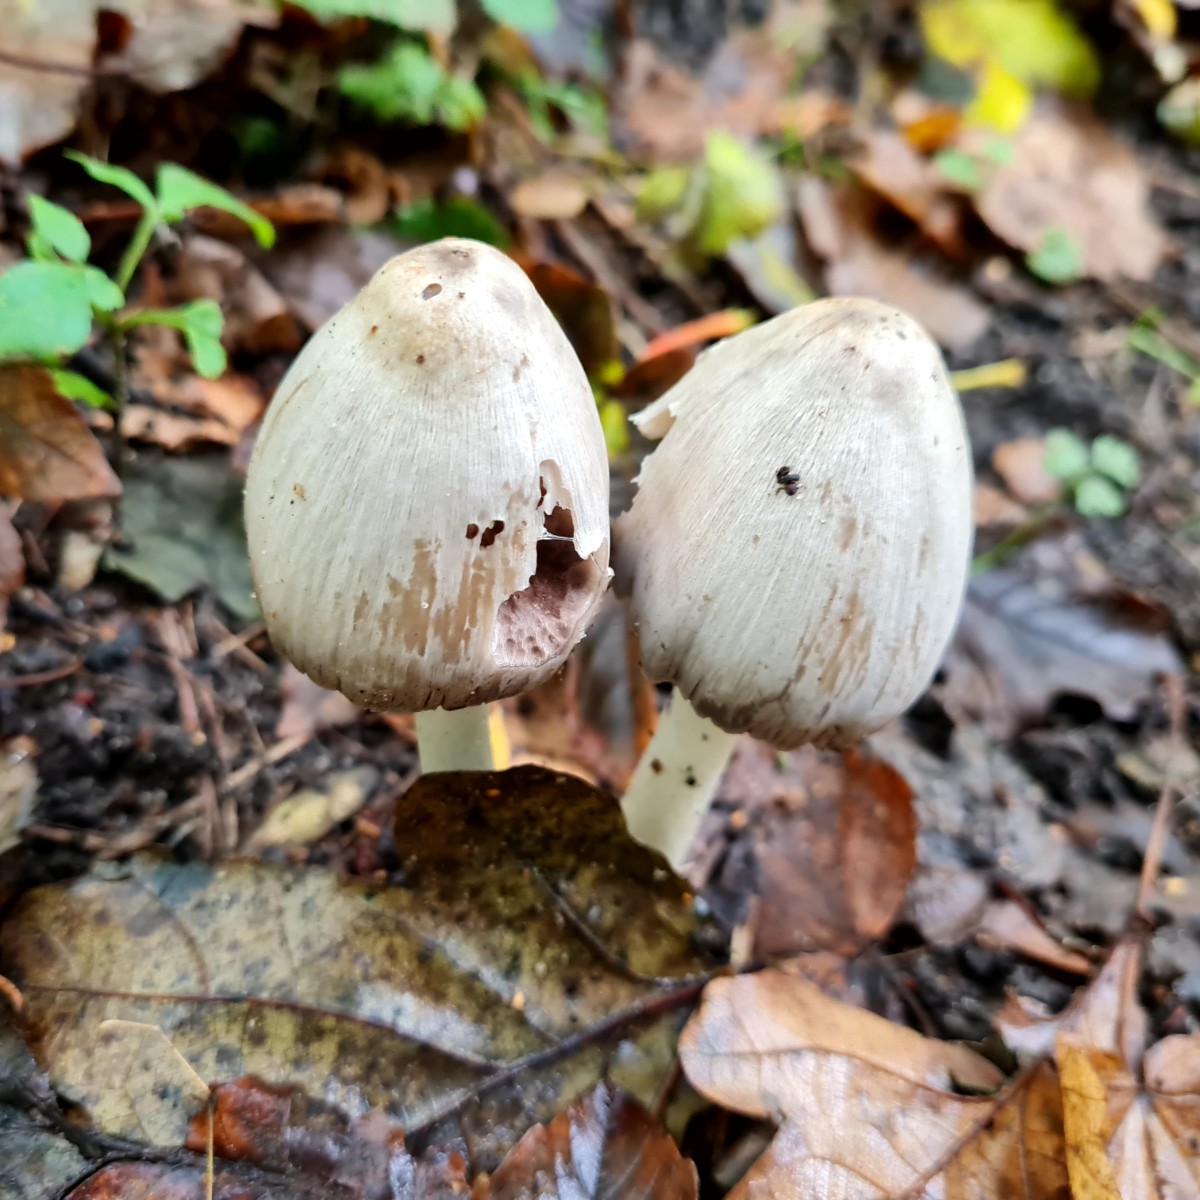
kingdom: Fungi
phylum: Basidiomycota
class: Agaricomycetes
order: Agaricales
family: Psathyrellaceae
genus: Coprinopsis
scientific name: Coprinopsis
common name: blækhat
